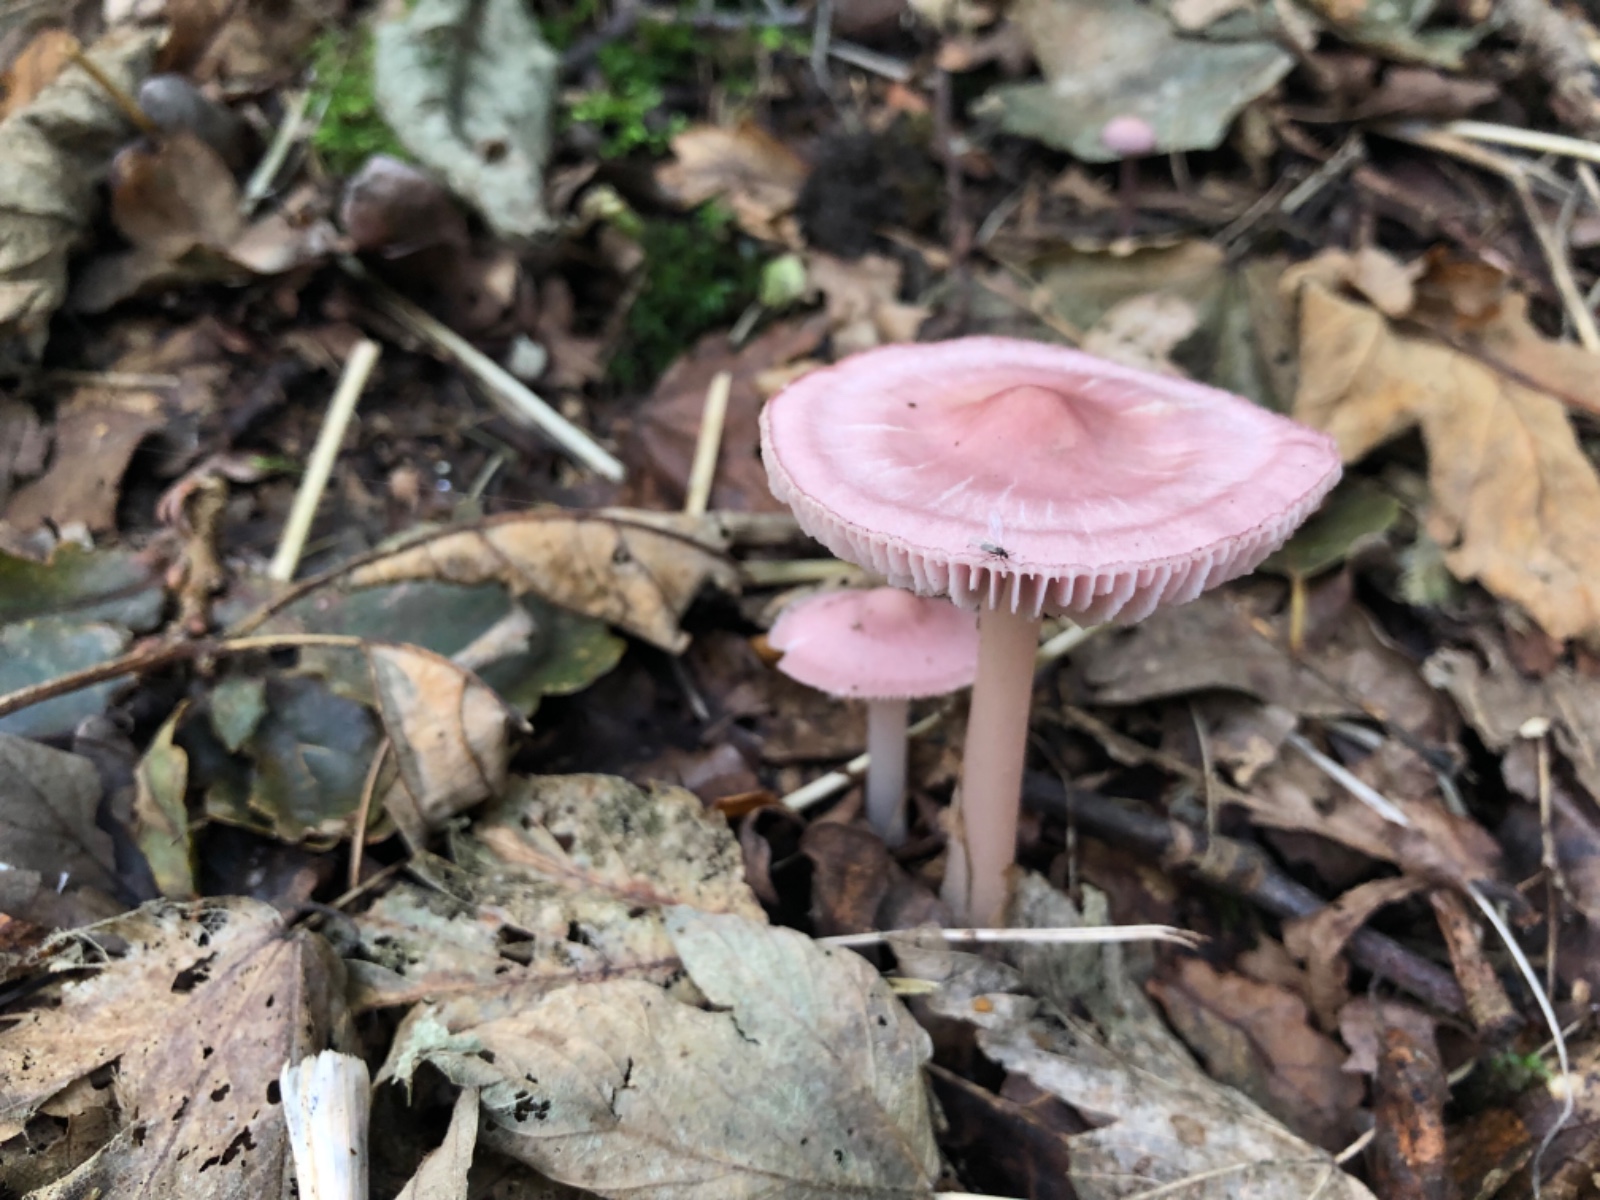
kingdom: Fungi
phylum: Basidiomycota
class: Agaricomycetes
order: Agaricales
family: Mycenaceae
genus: Mycena
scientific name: Mycena rosea
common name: rosa huesvamp
